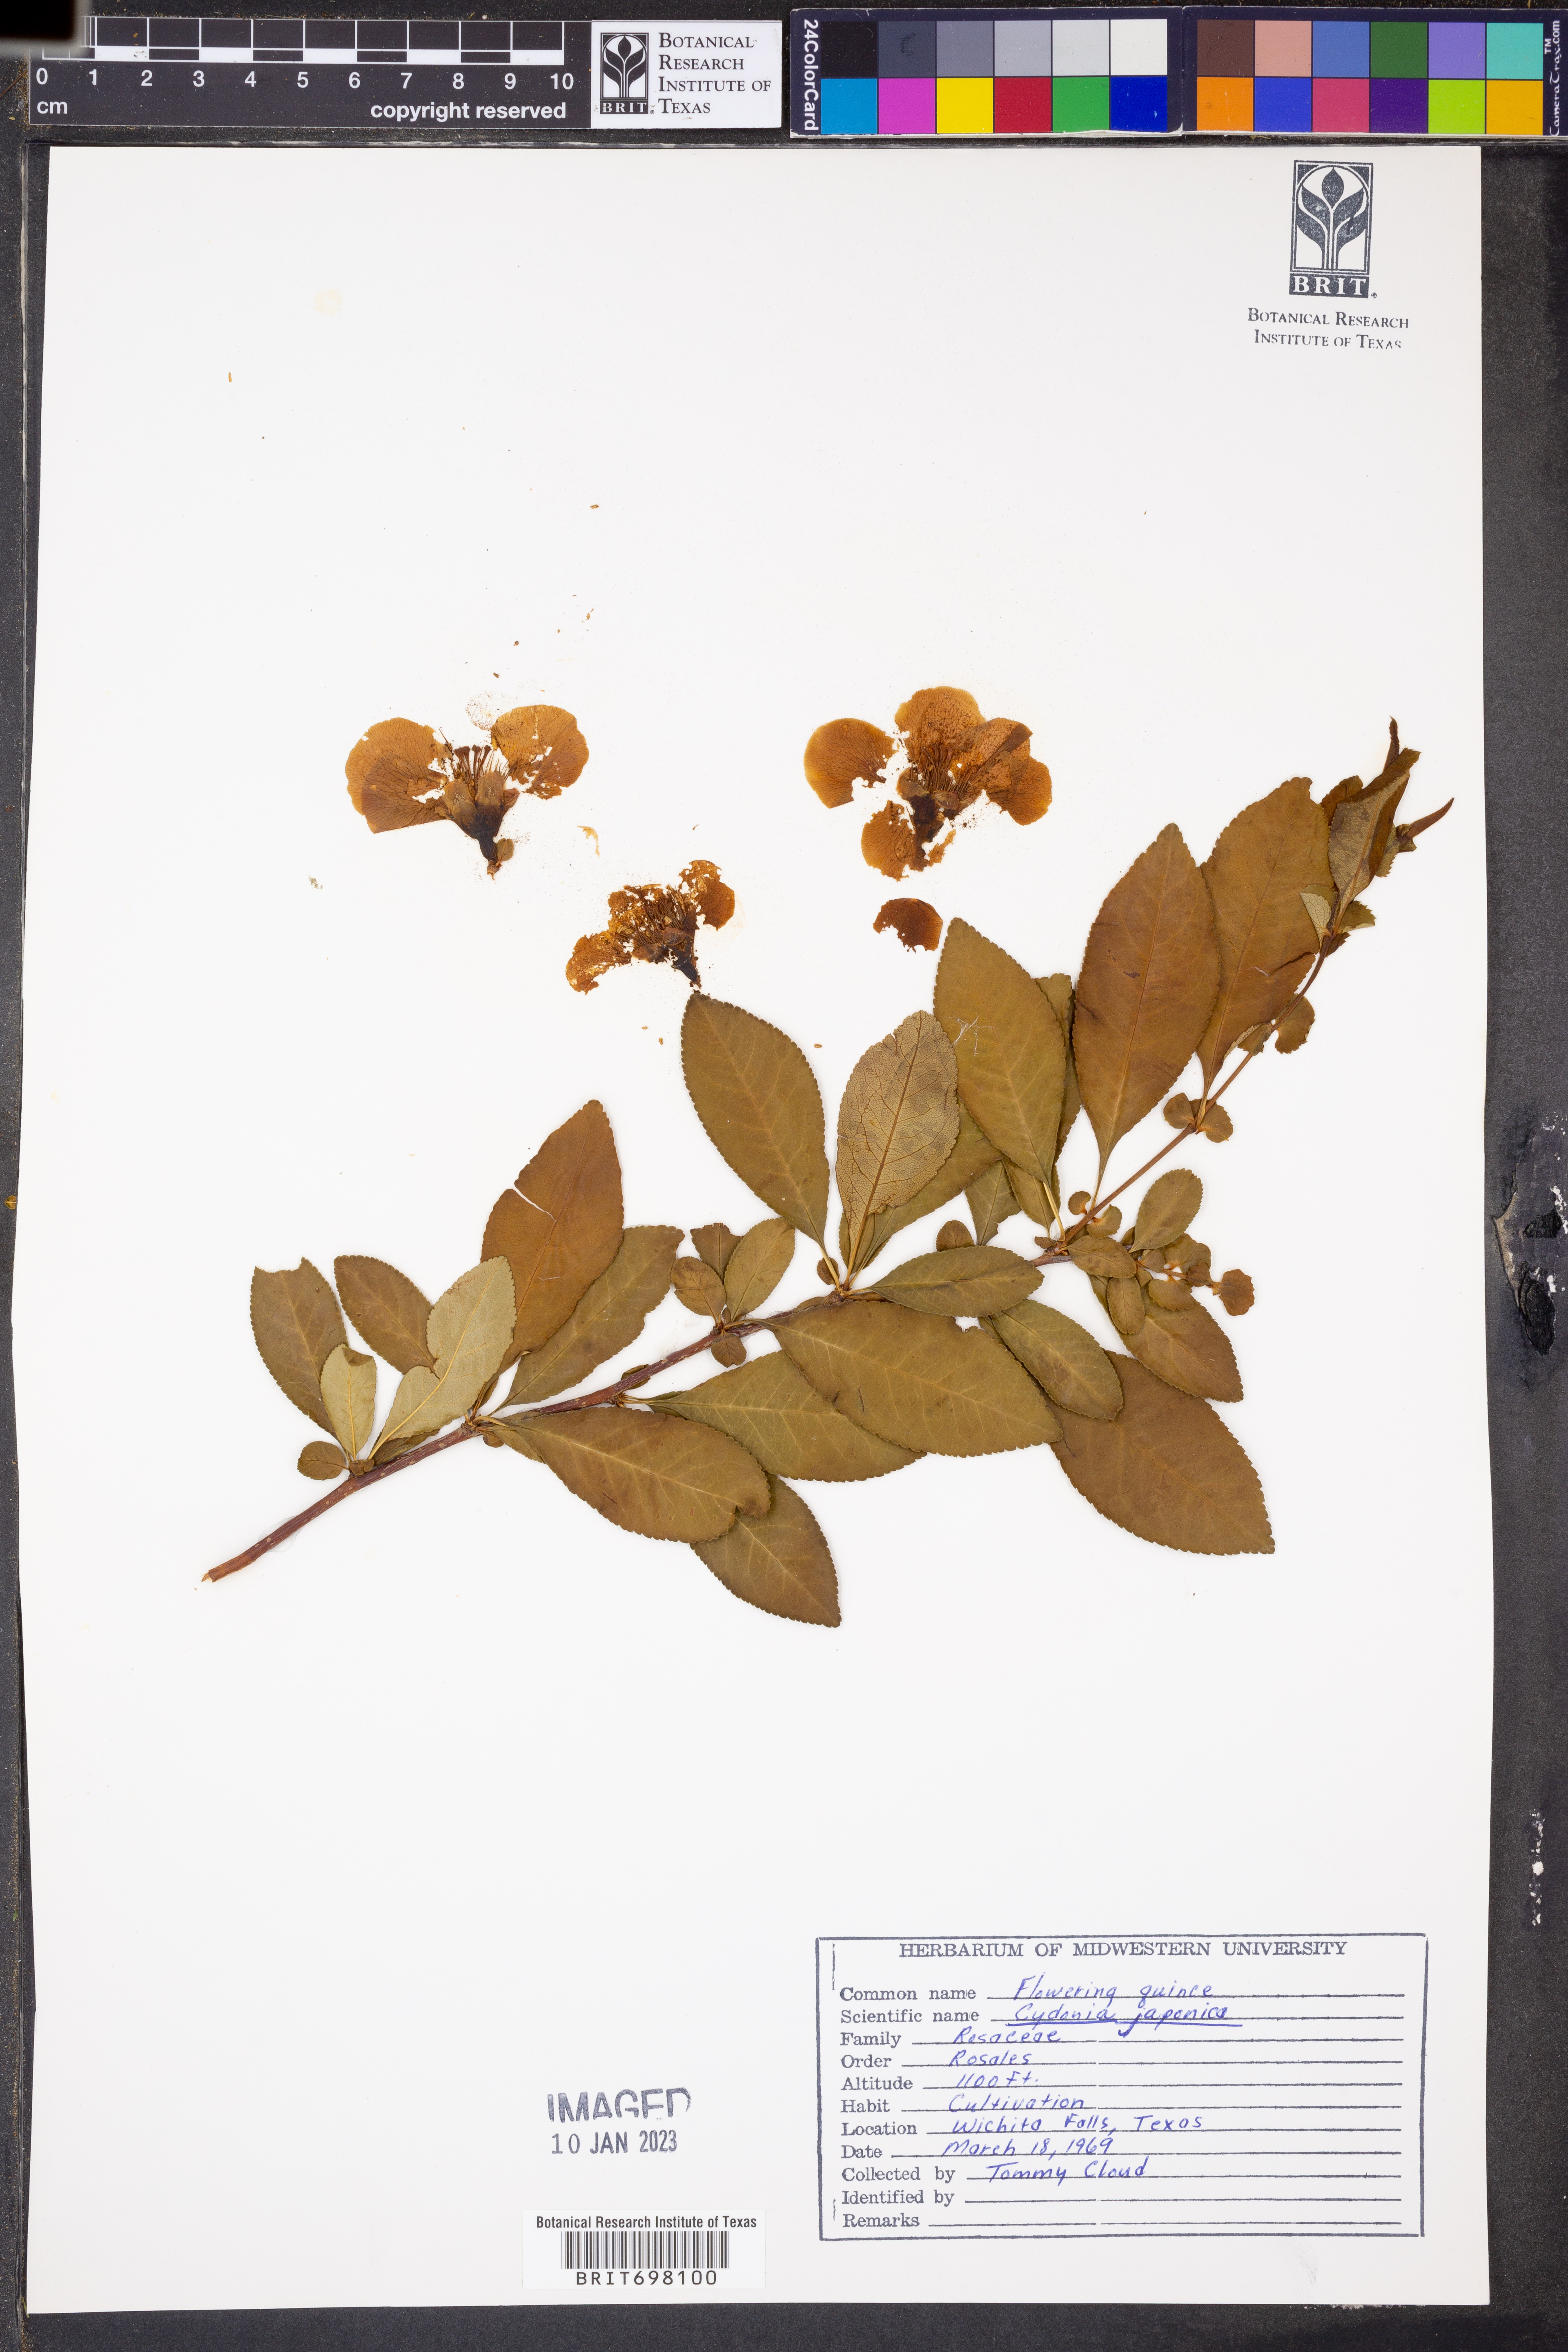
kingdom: Plantae
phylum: Tracheophyta
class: Magnoliopsida
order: Rosales
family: Rosaceae
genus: Chaenomeles
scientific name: Chaenomeles japonica
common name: Japanese quince
